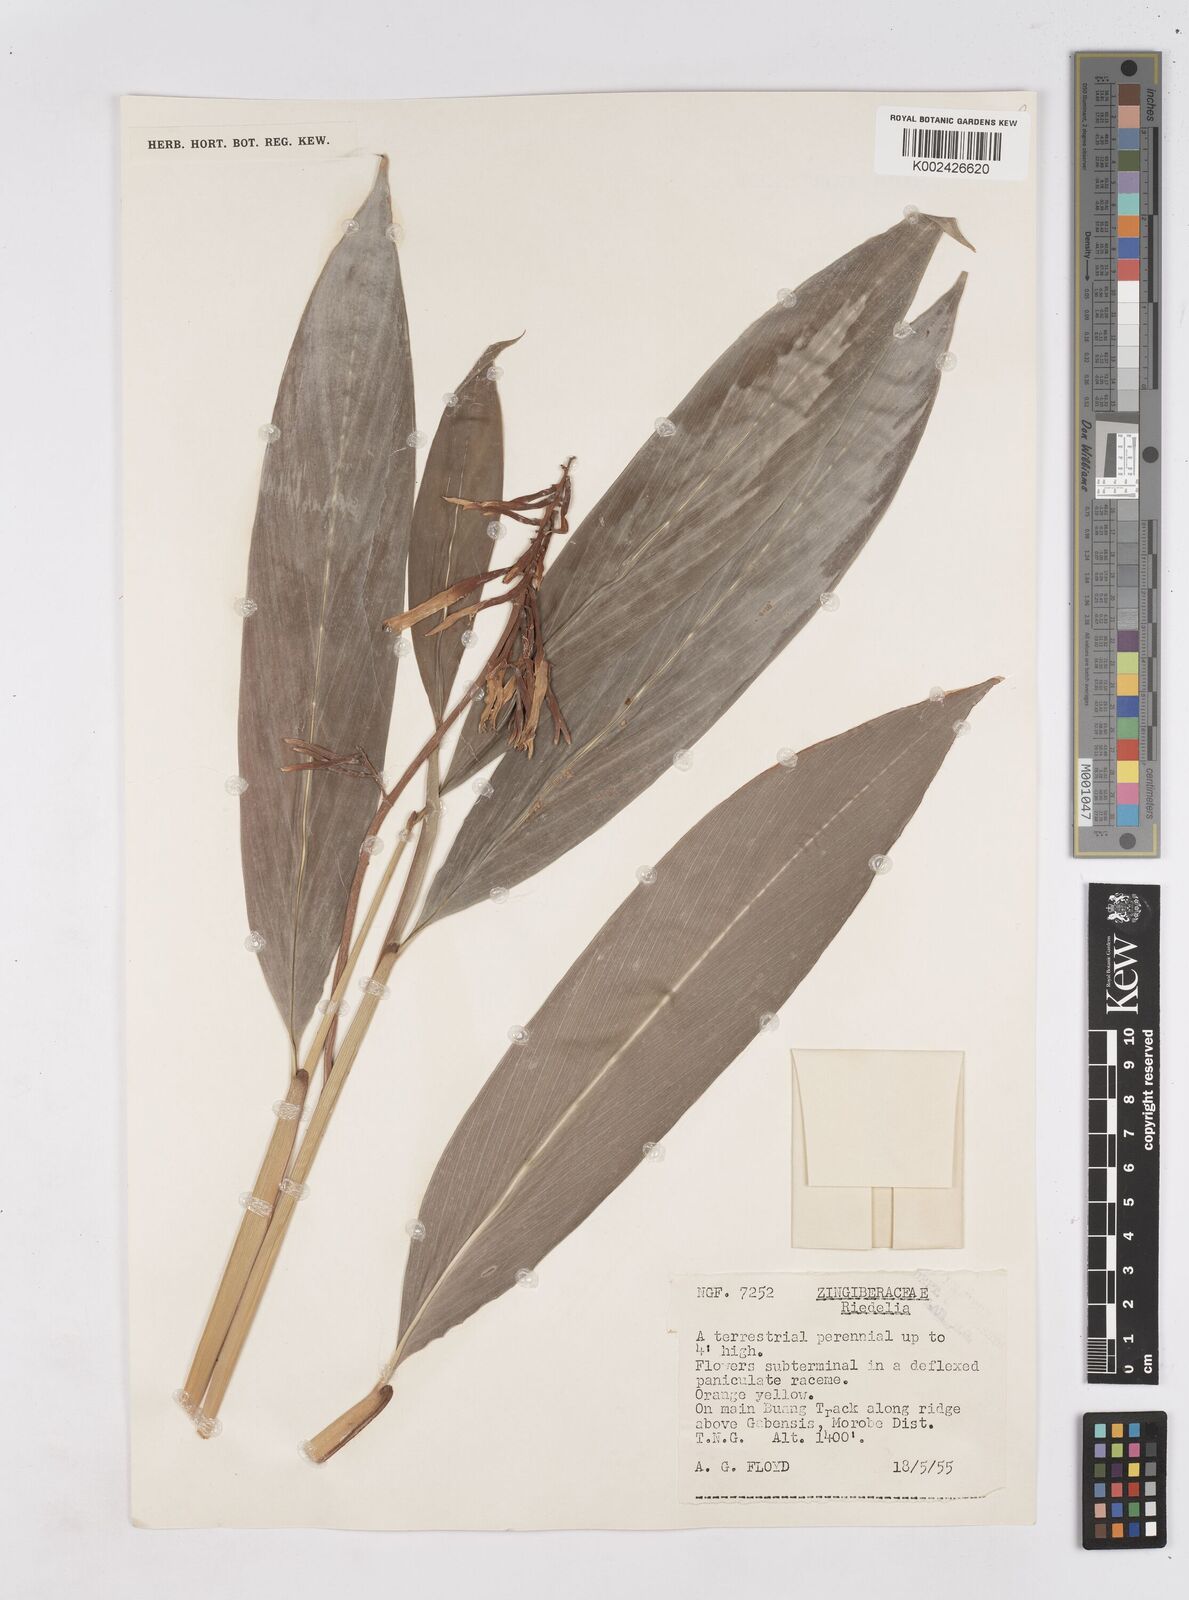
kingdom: Plantae
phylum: Tracheophyta
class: Liliopsida
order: Zingiberales
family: Zingiberaceae
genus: Riedelia
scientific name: Riedelia
